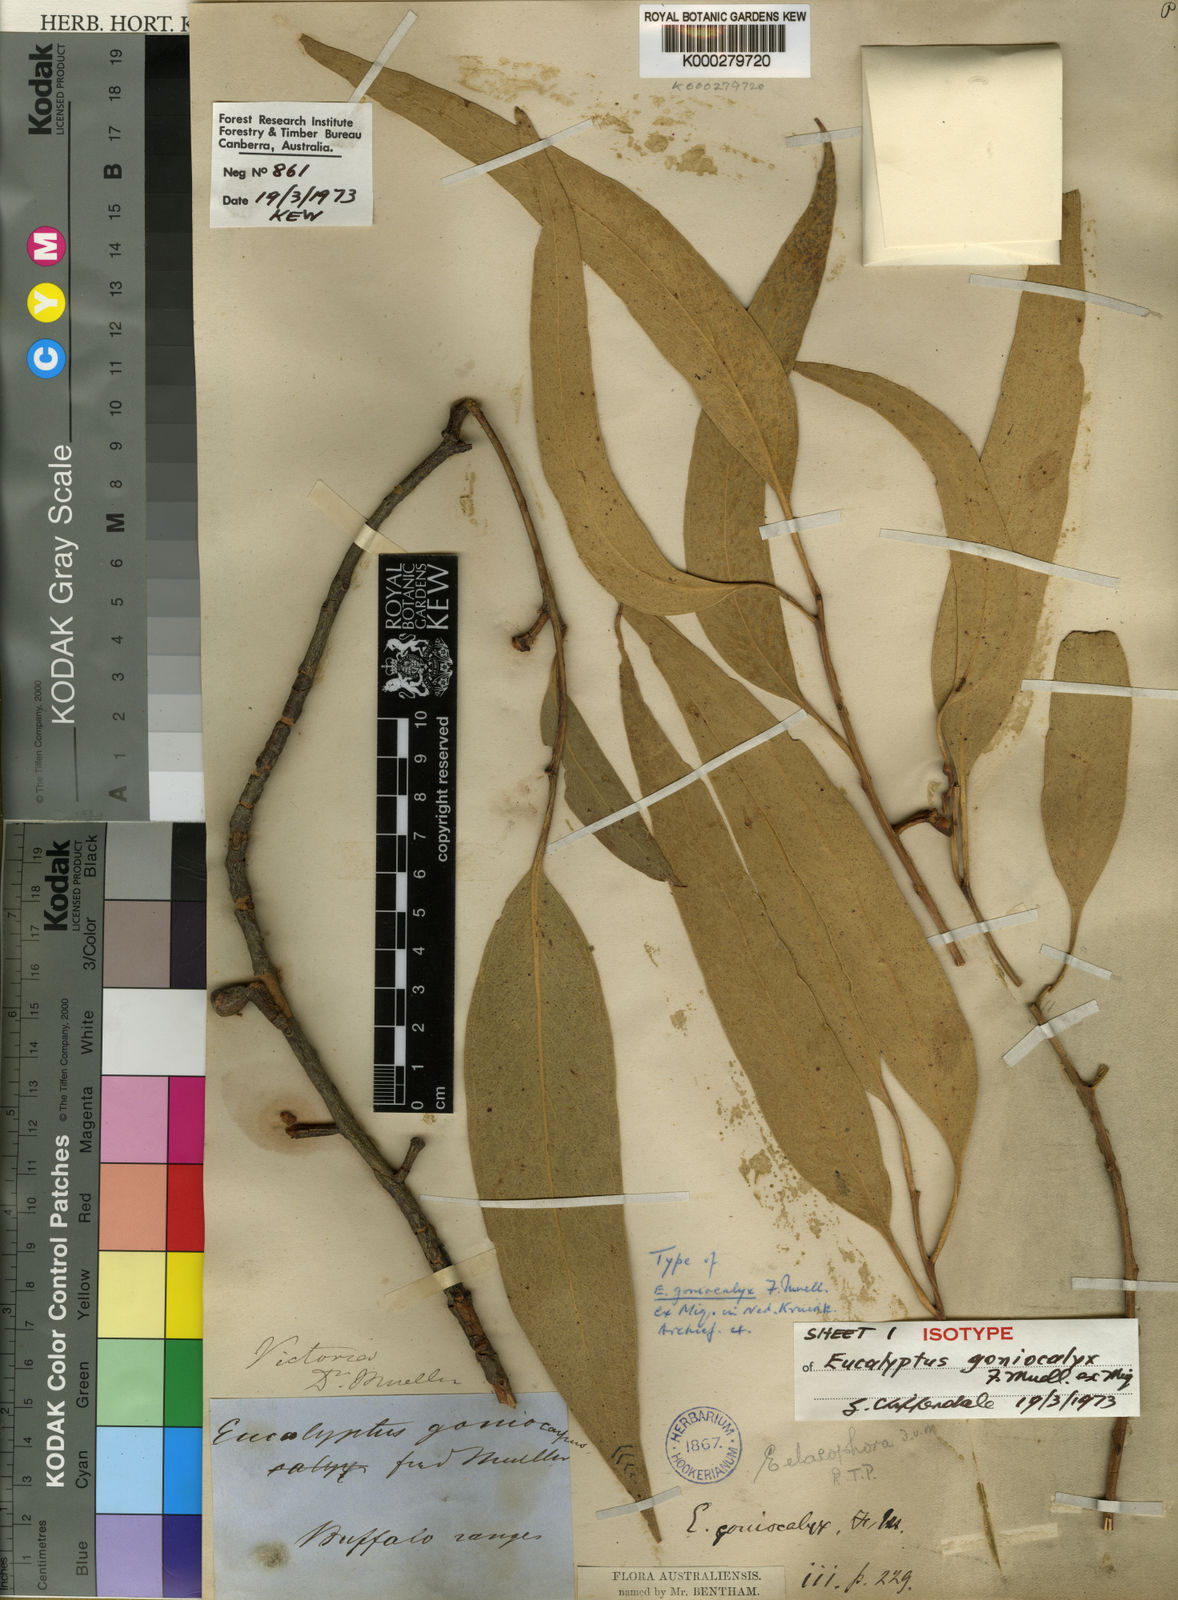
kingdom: Plantae
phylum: Tracheophyta
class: Magnoliopsida
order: Myrtales
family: Myrtaceae
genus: Eucalyptus
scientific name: Eucalyptus goniocalyx
